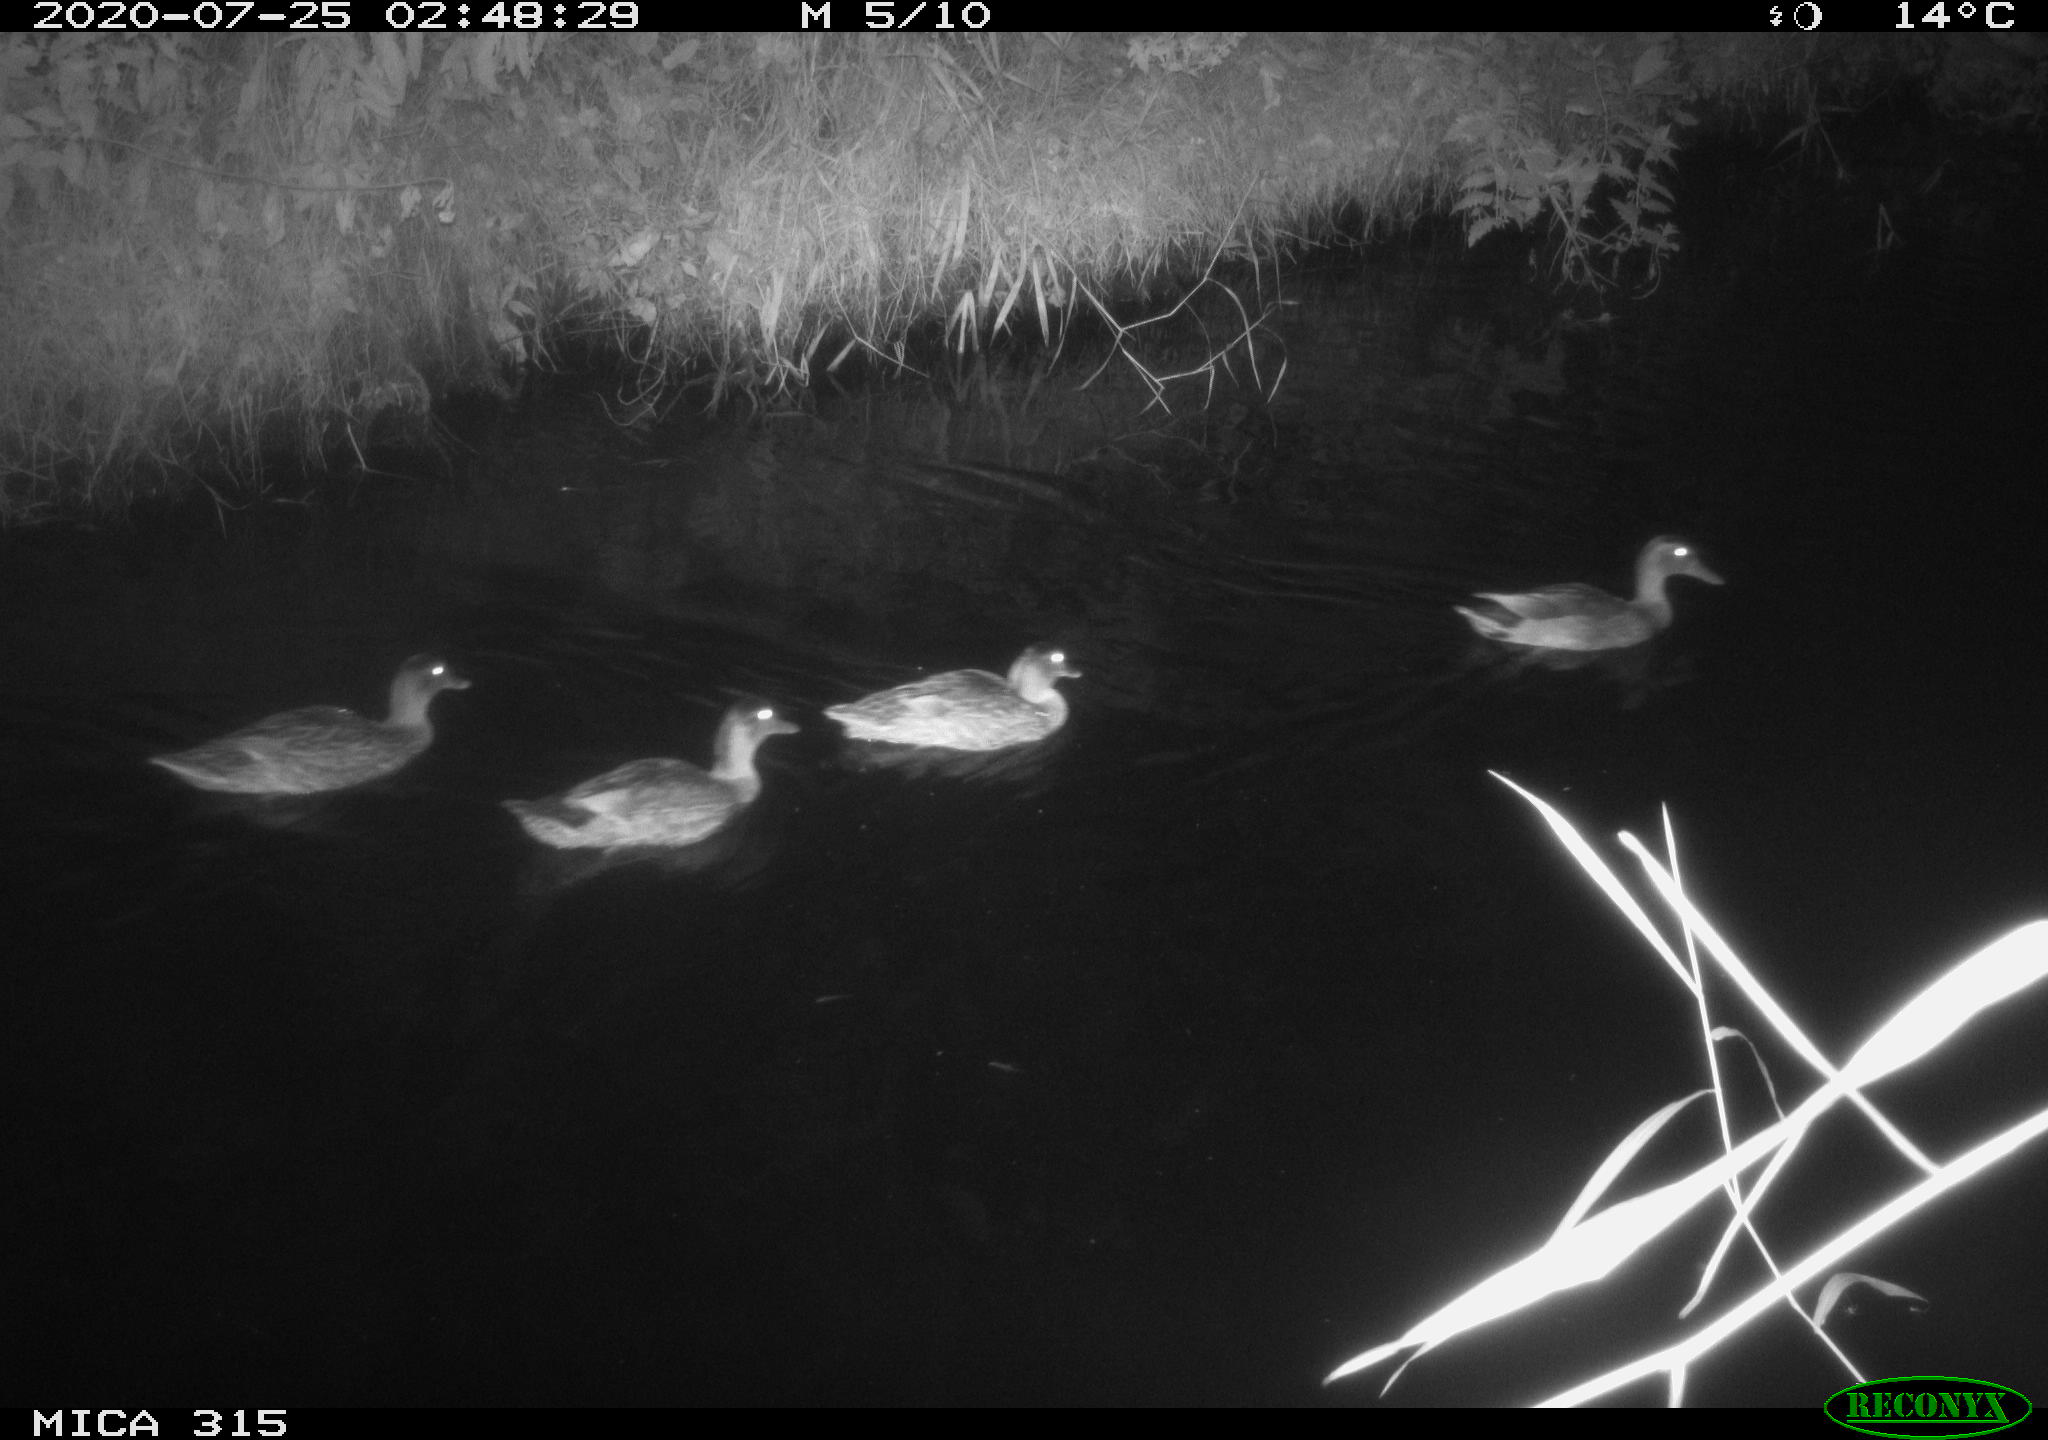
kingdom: Animalia
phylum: Chordata
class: Aves
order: Anseriformes
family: Anatidae
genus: Anas
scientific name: Anas platyrhynchos
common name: Mallard
